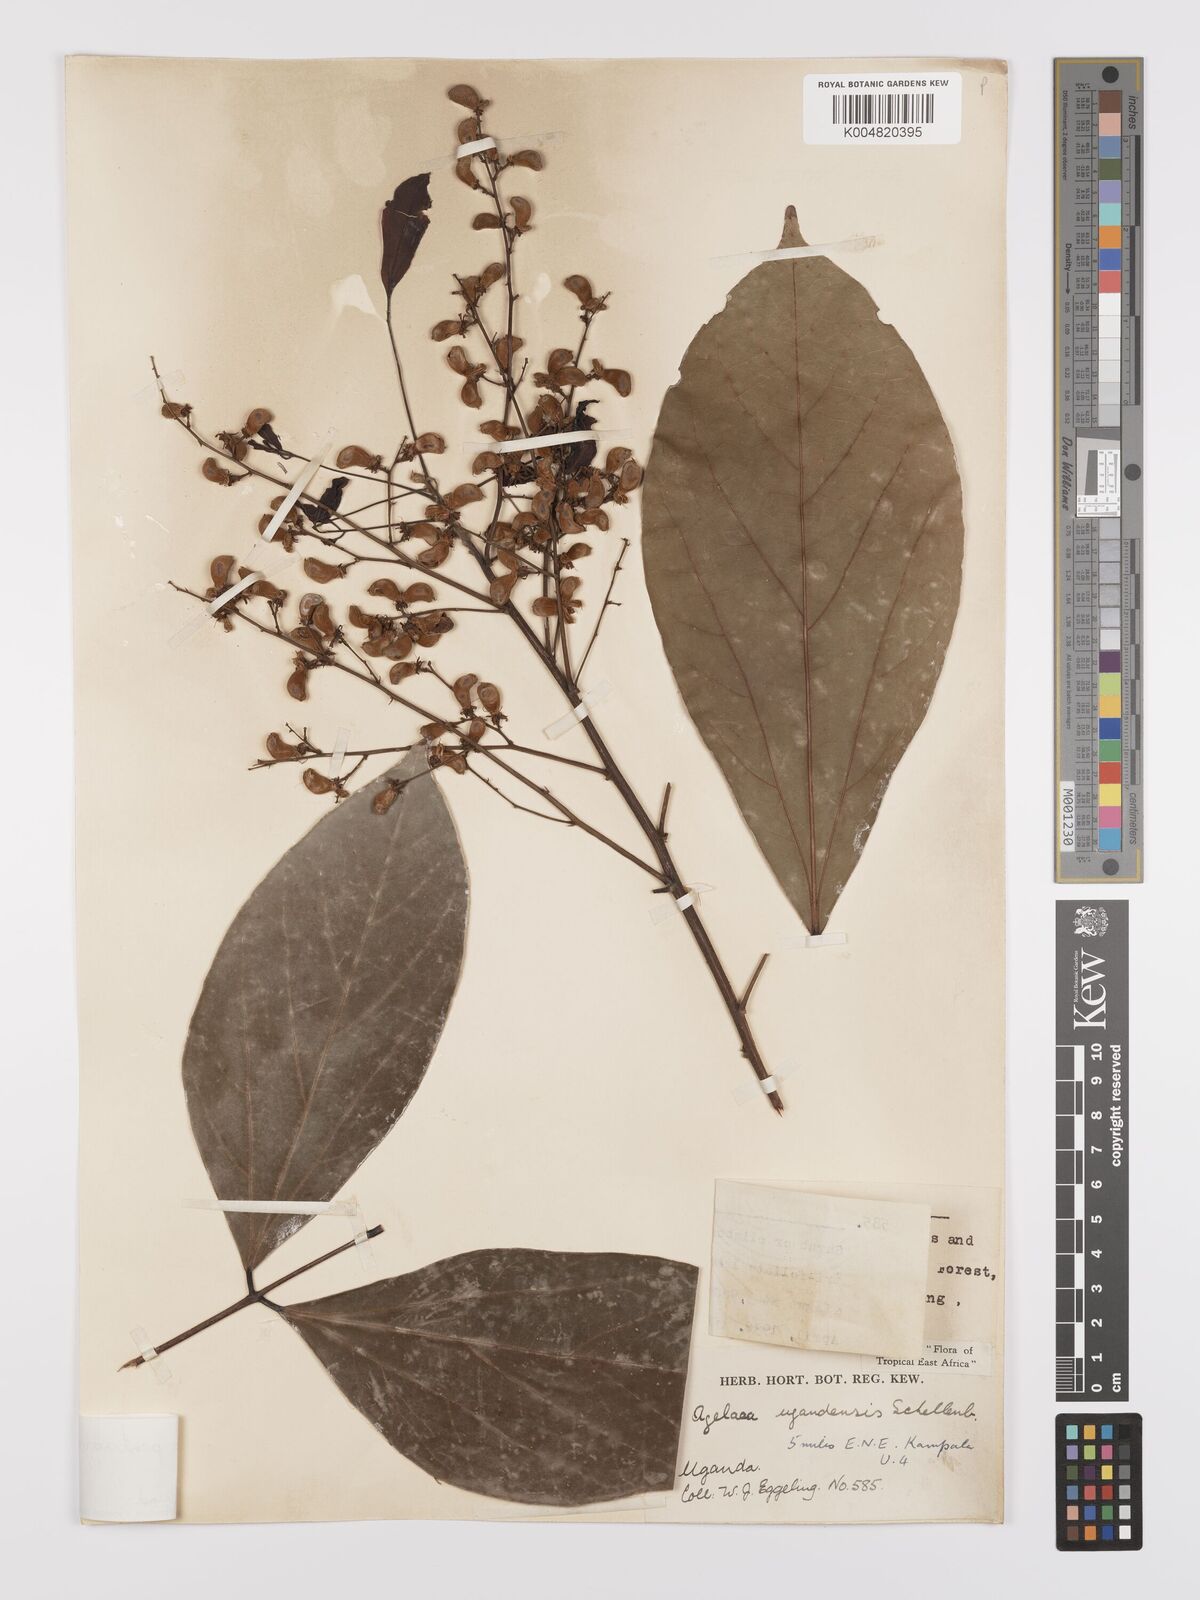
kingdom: Plantae
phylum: Tracheophyta
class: Magnoliopsida
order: Oxalidales
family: Connaraceae
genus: Agelaea
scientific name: Agelaea pentagyna
